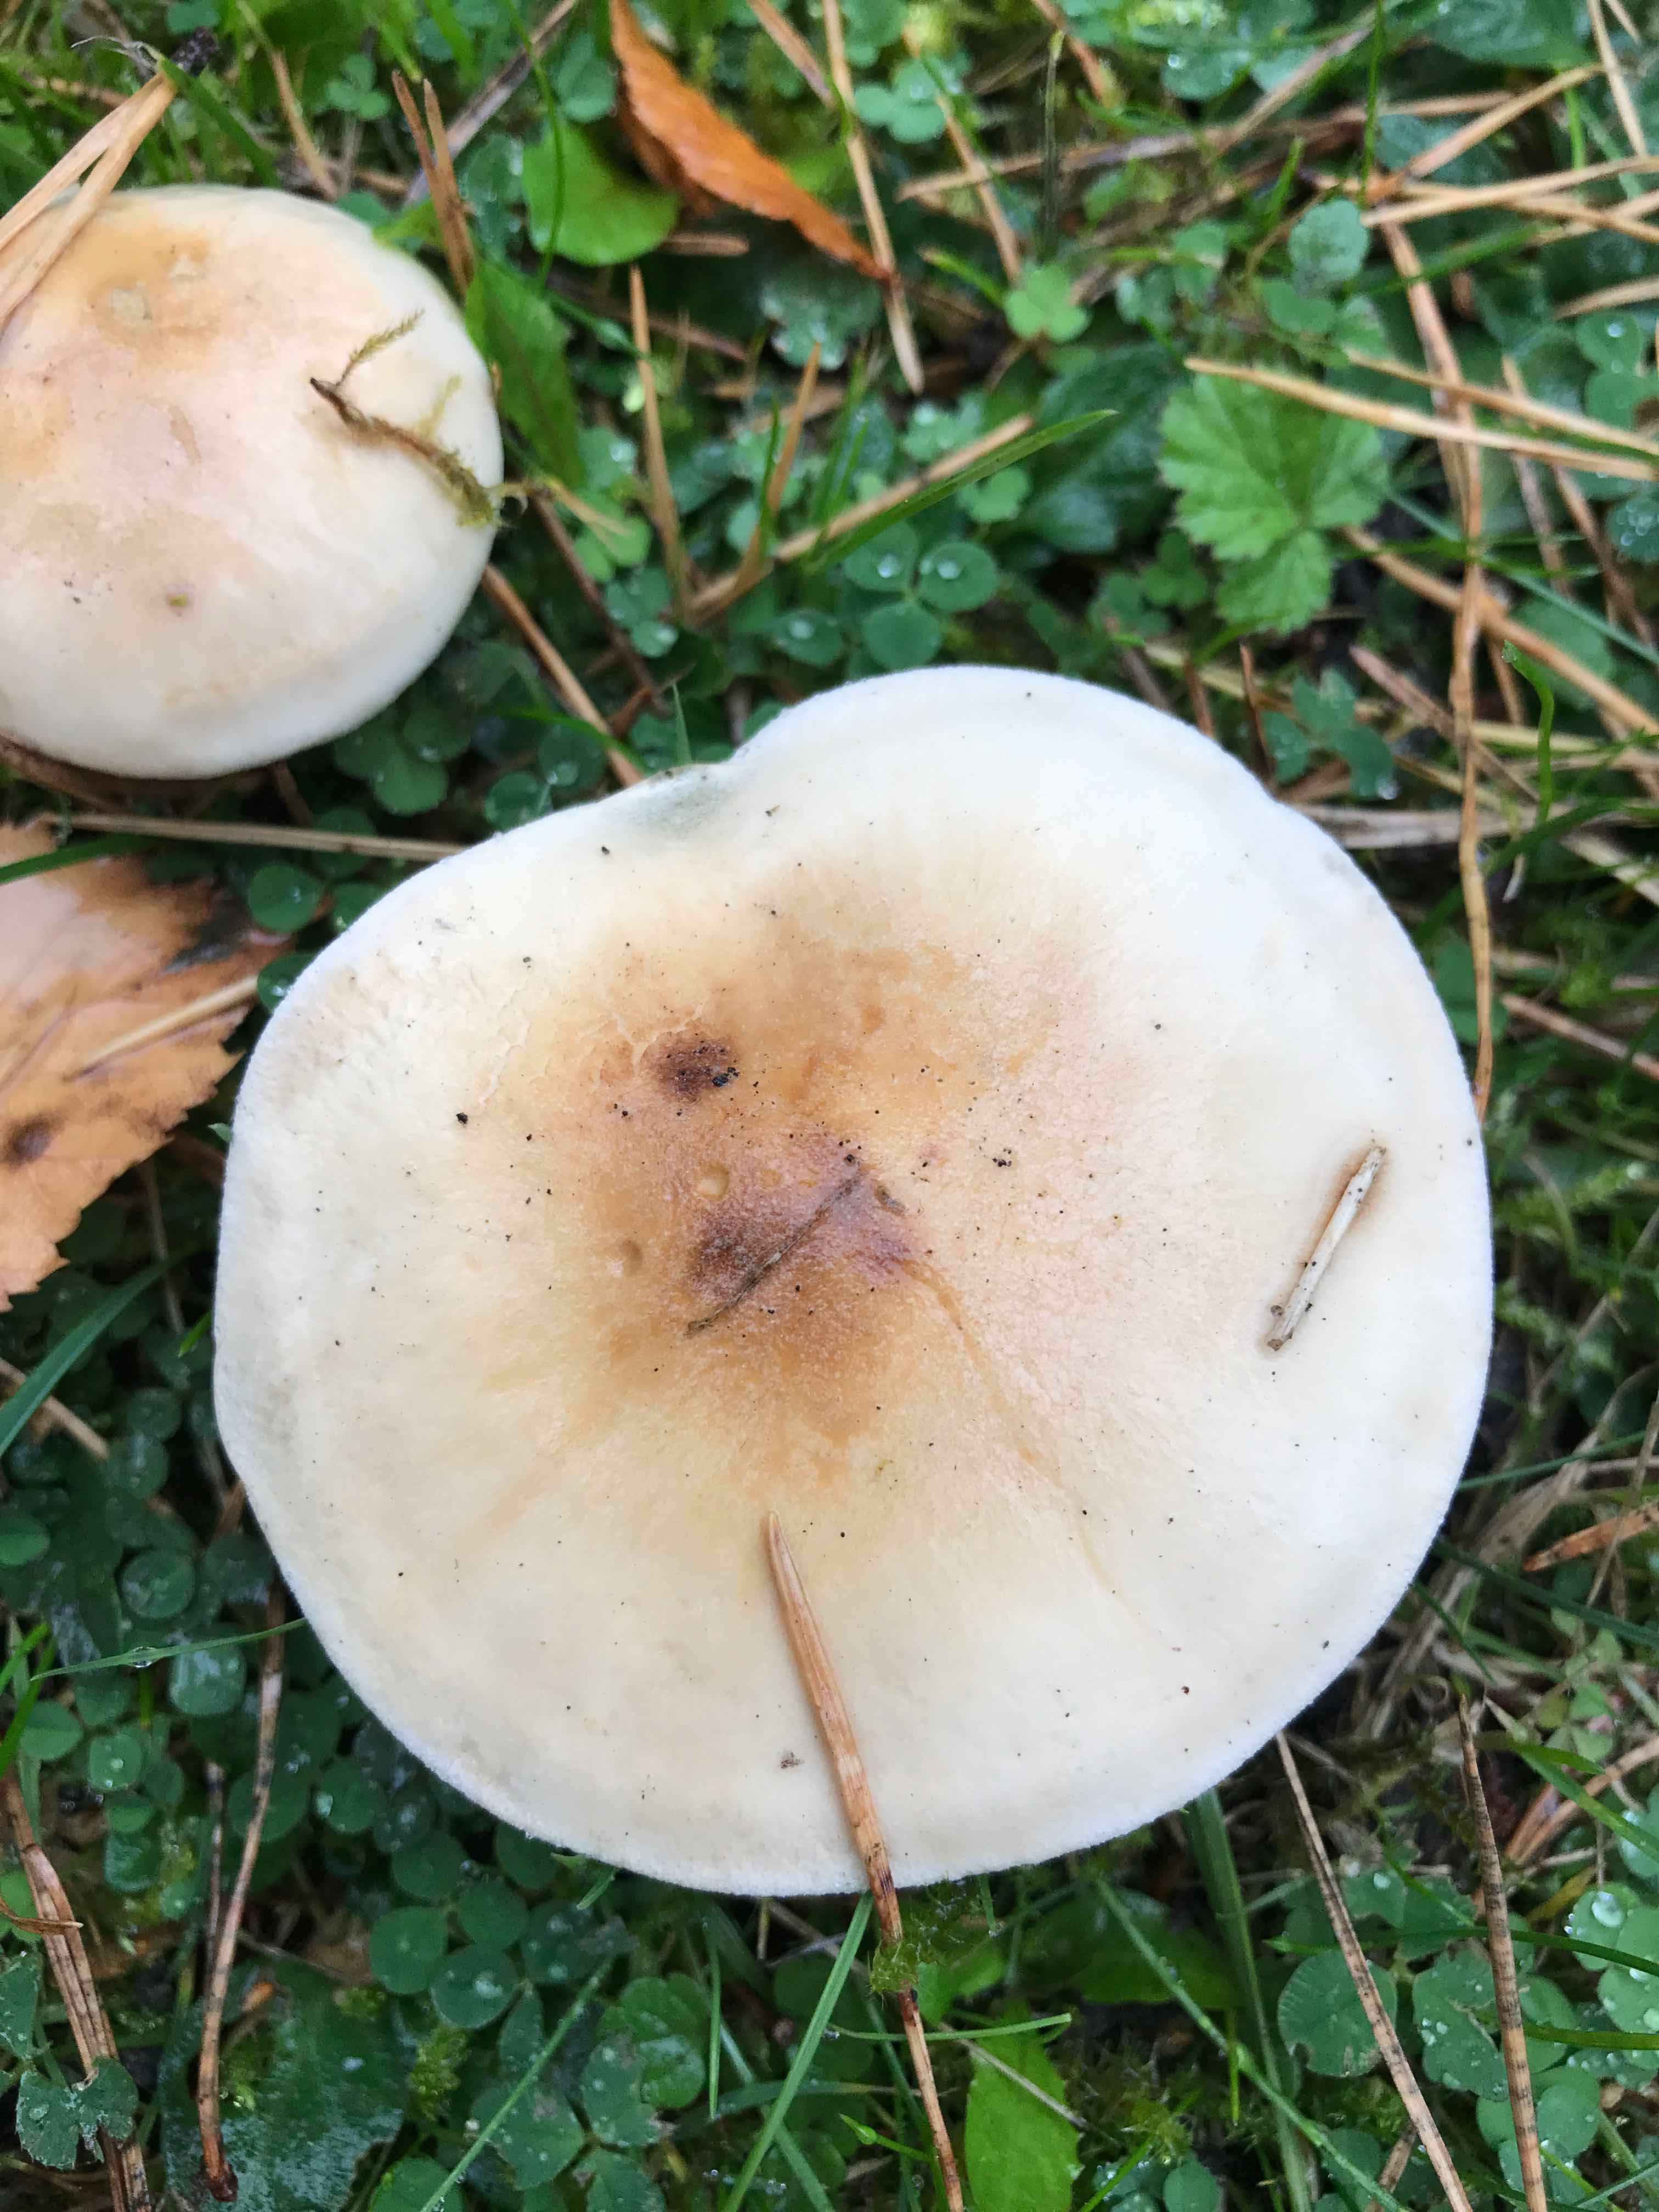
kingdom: Fungi
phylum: Basidiomycota
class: Agaricomycetes
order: Agaricales
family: Hymenogastraceae
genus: Hebeloma
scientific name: Hebeloma
